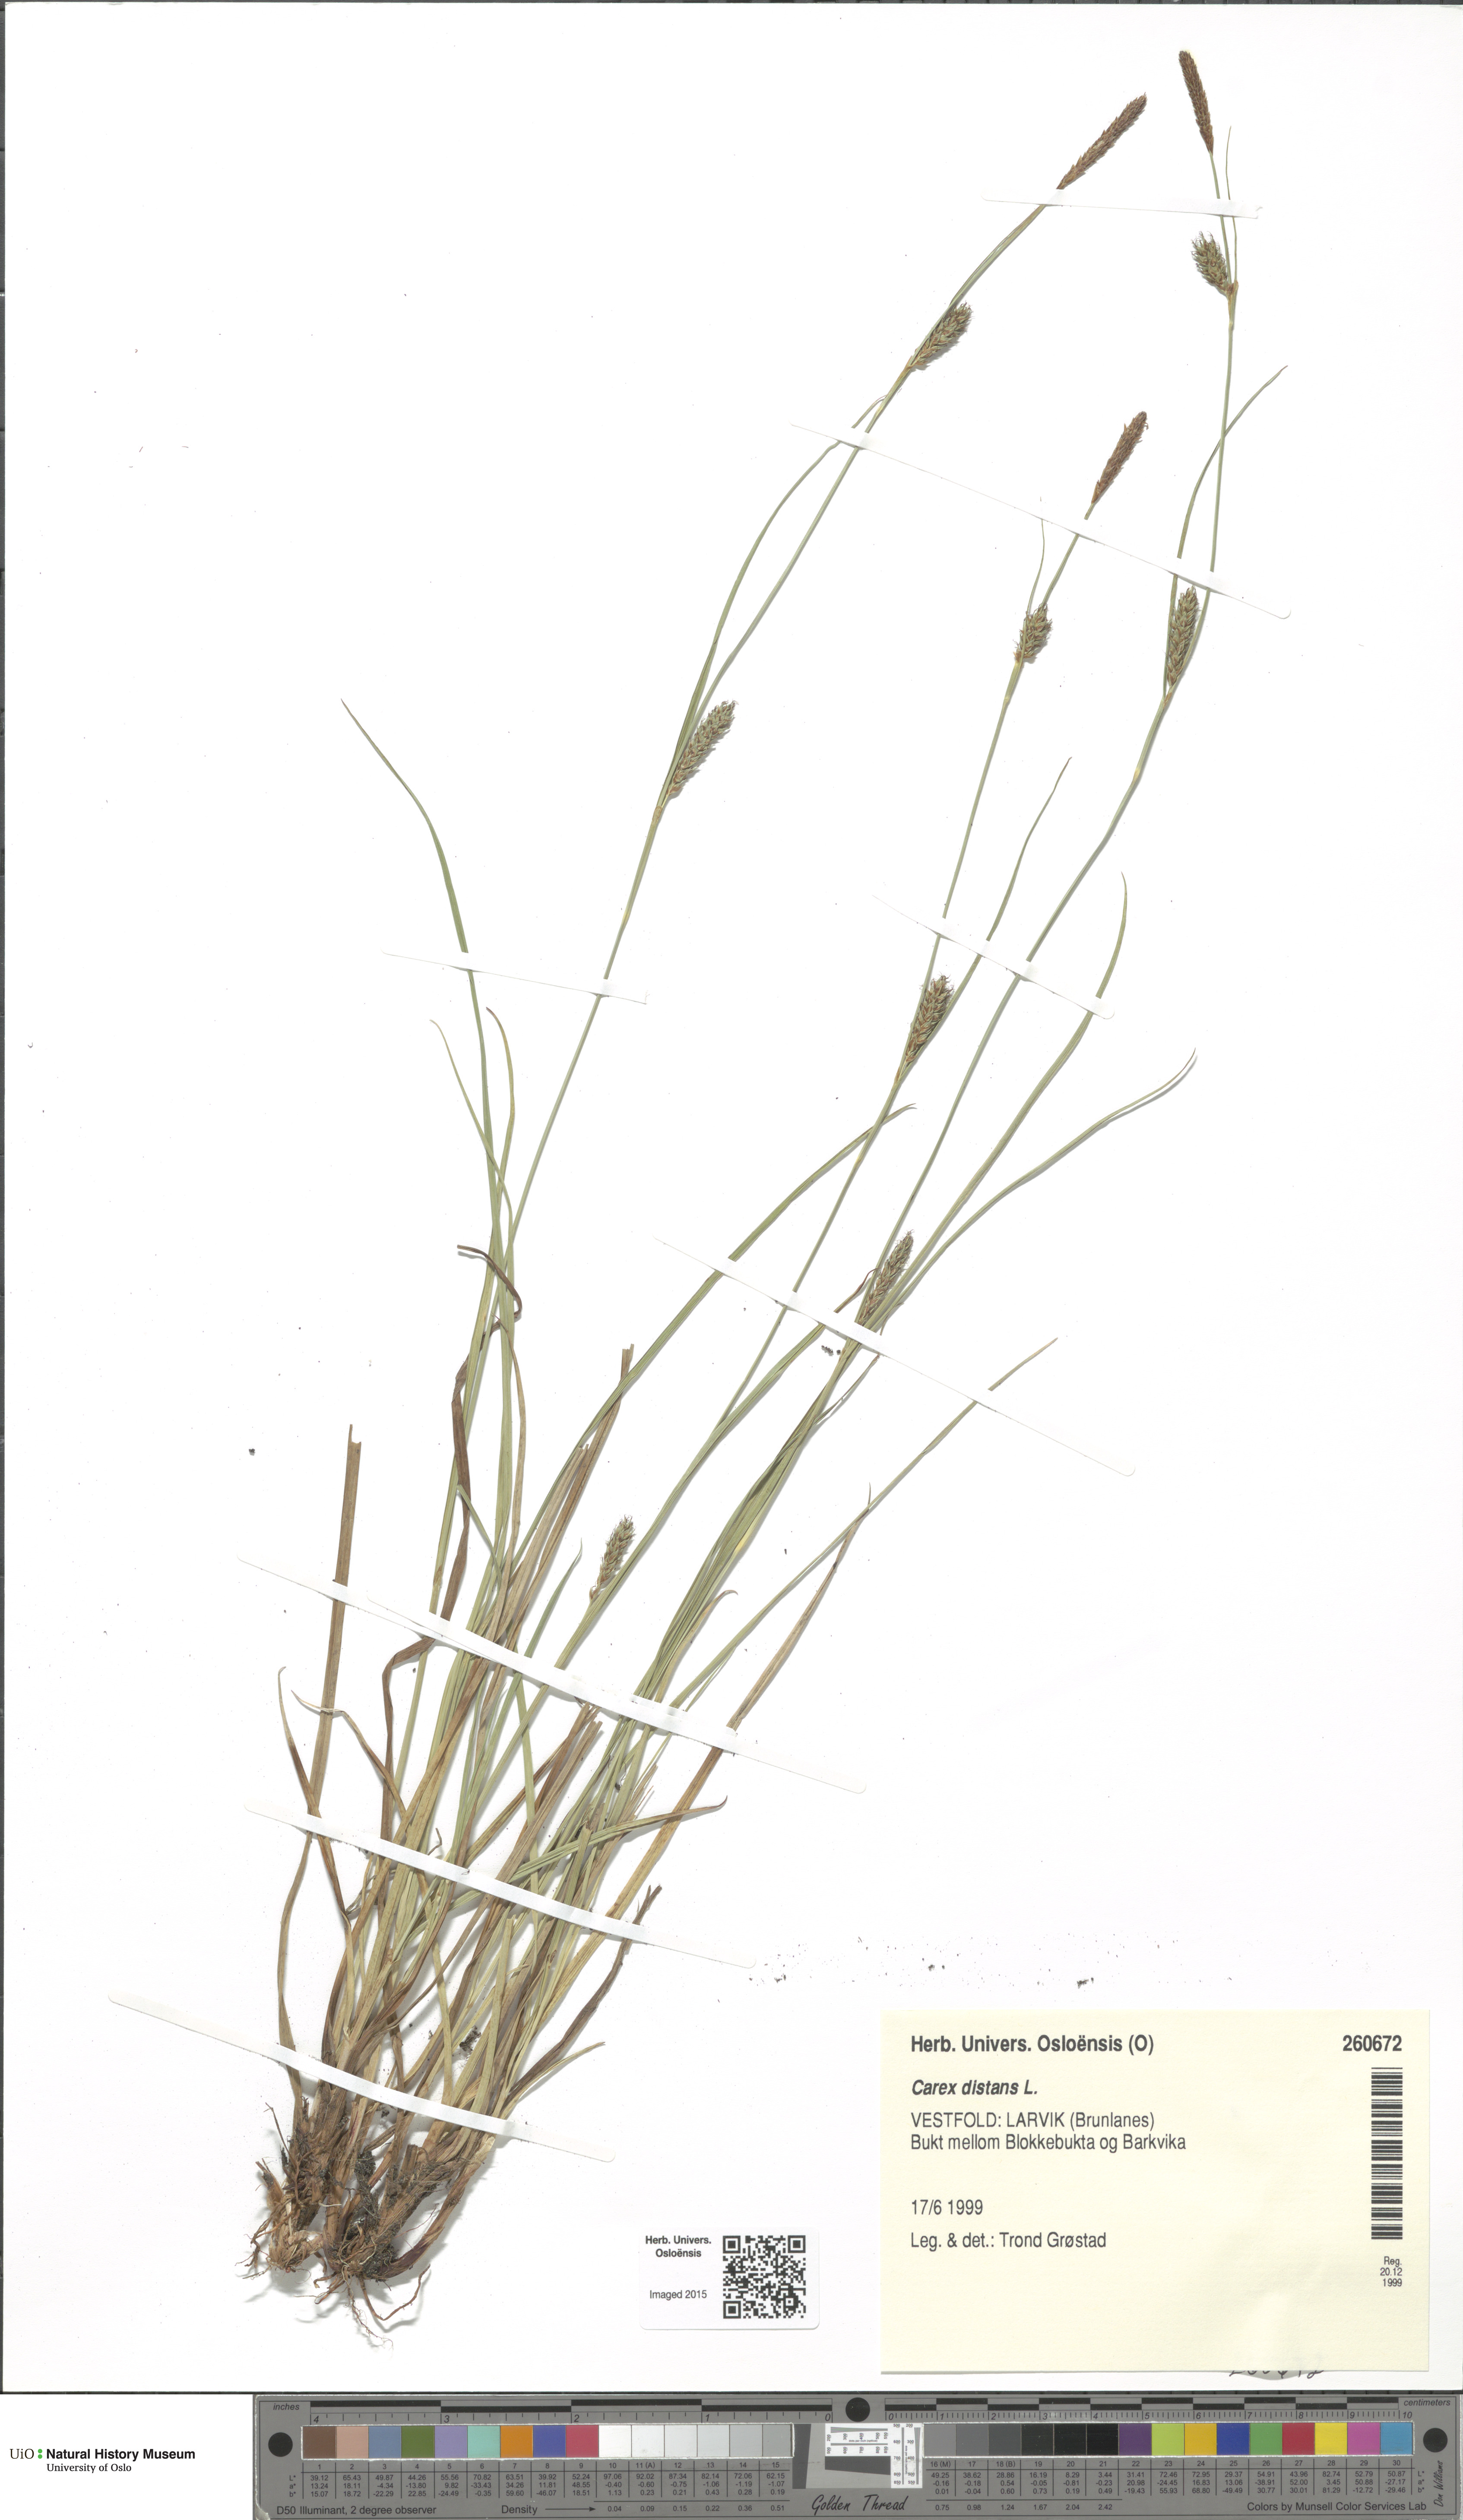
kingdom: Plantae
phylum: Tracheophyta
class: Liliopsida
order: Poales
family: Cyperaceae
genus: Carex
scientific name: Carex distans
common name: Distant sedge
